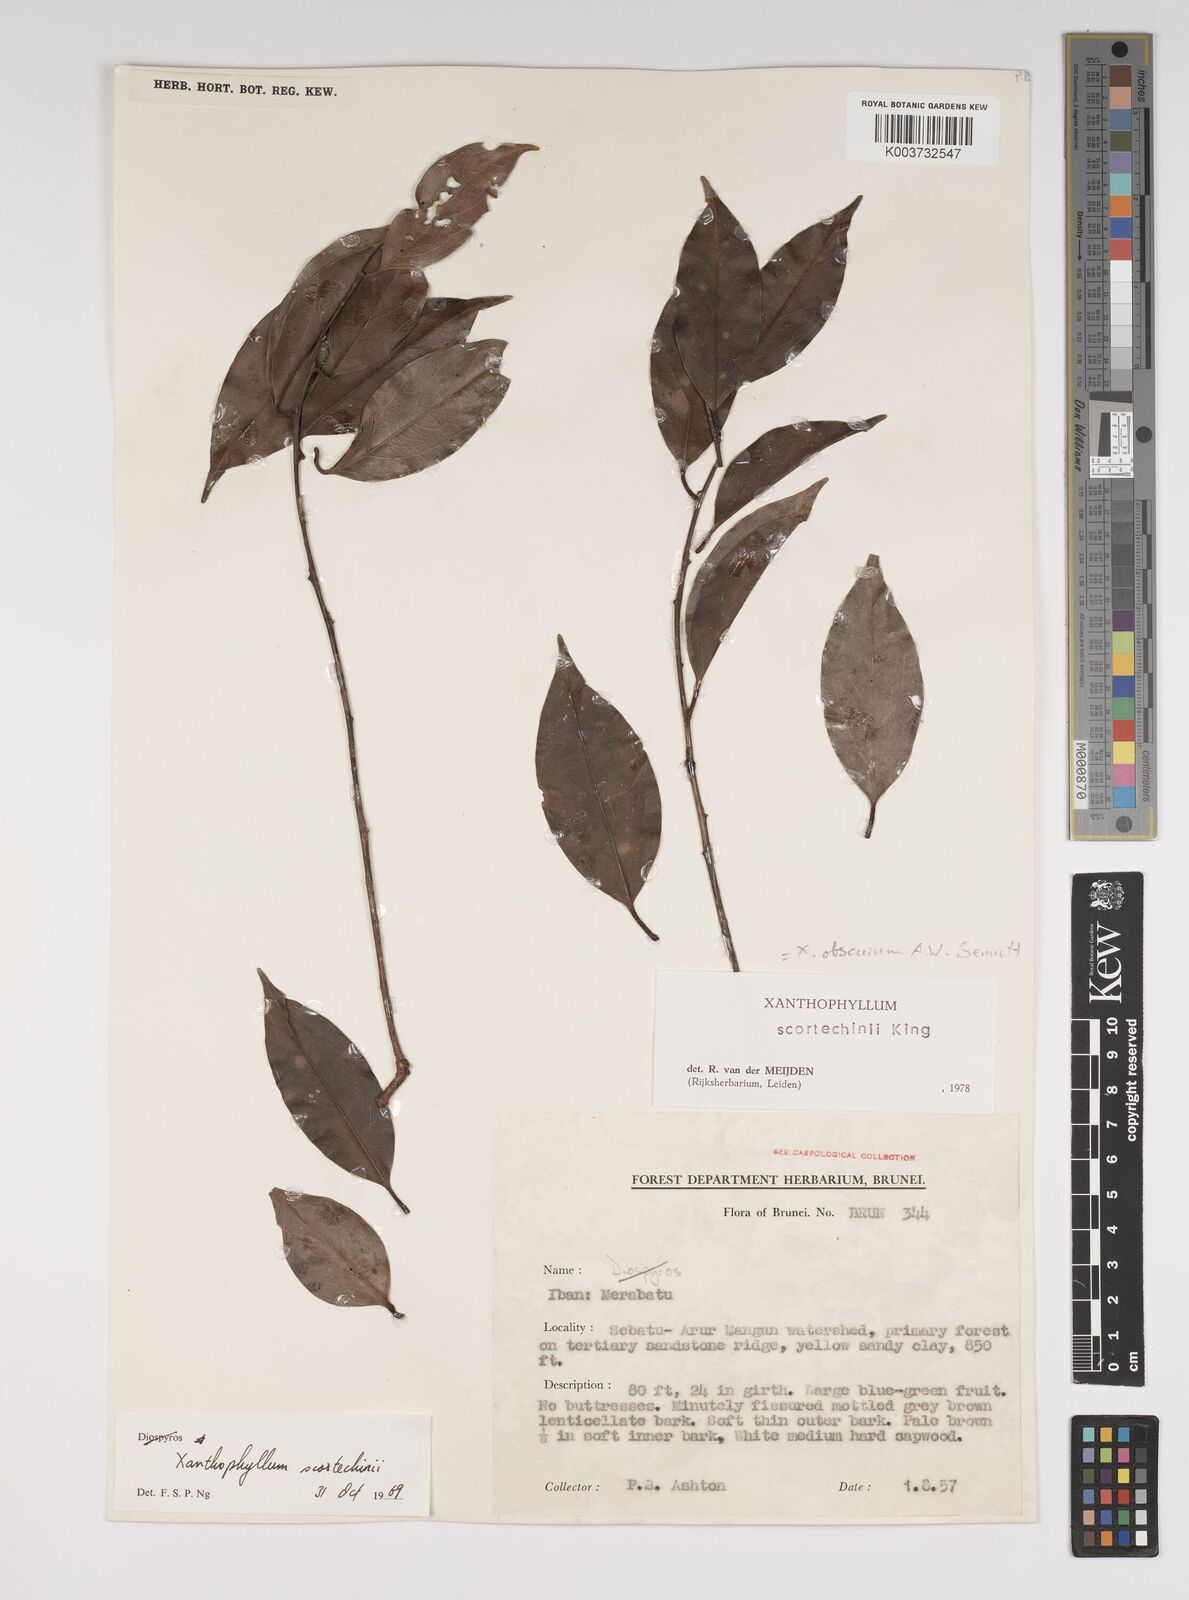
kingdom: Plantae
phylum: Tracheophyta
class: Magnoliopsida
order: Fabales
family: Polygalaceae
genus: Xanthophyllum
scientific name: Xanthophyllum obscurum
